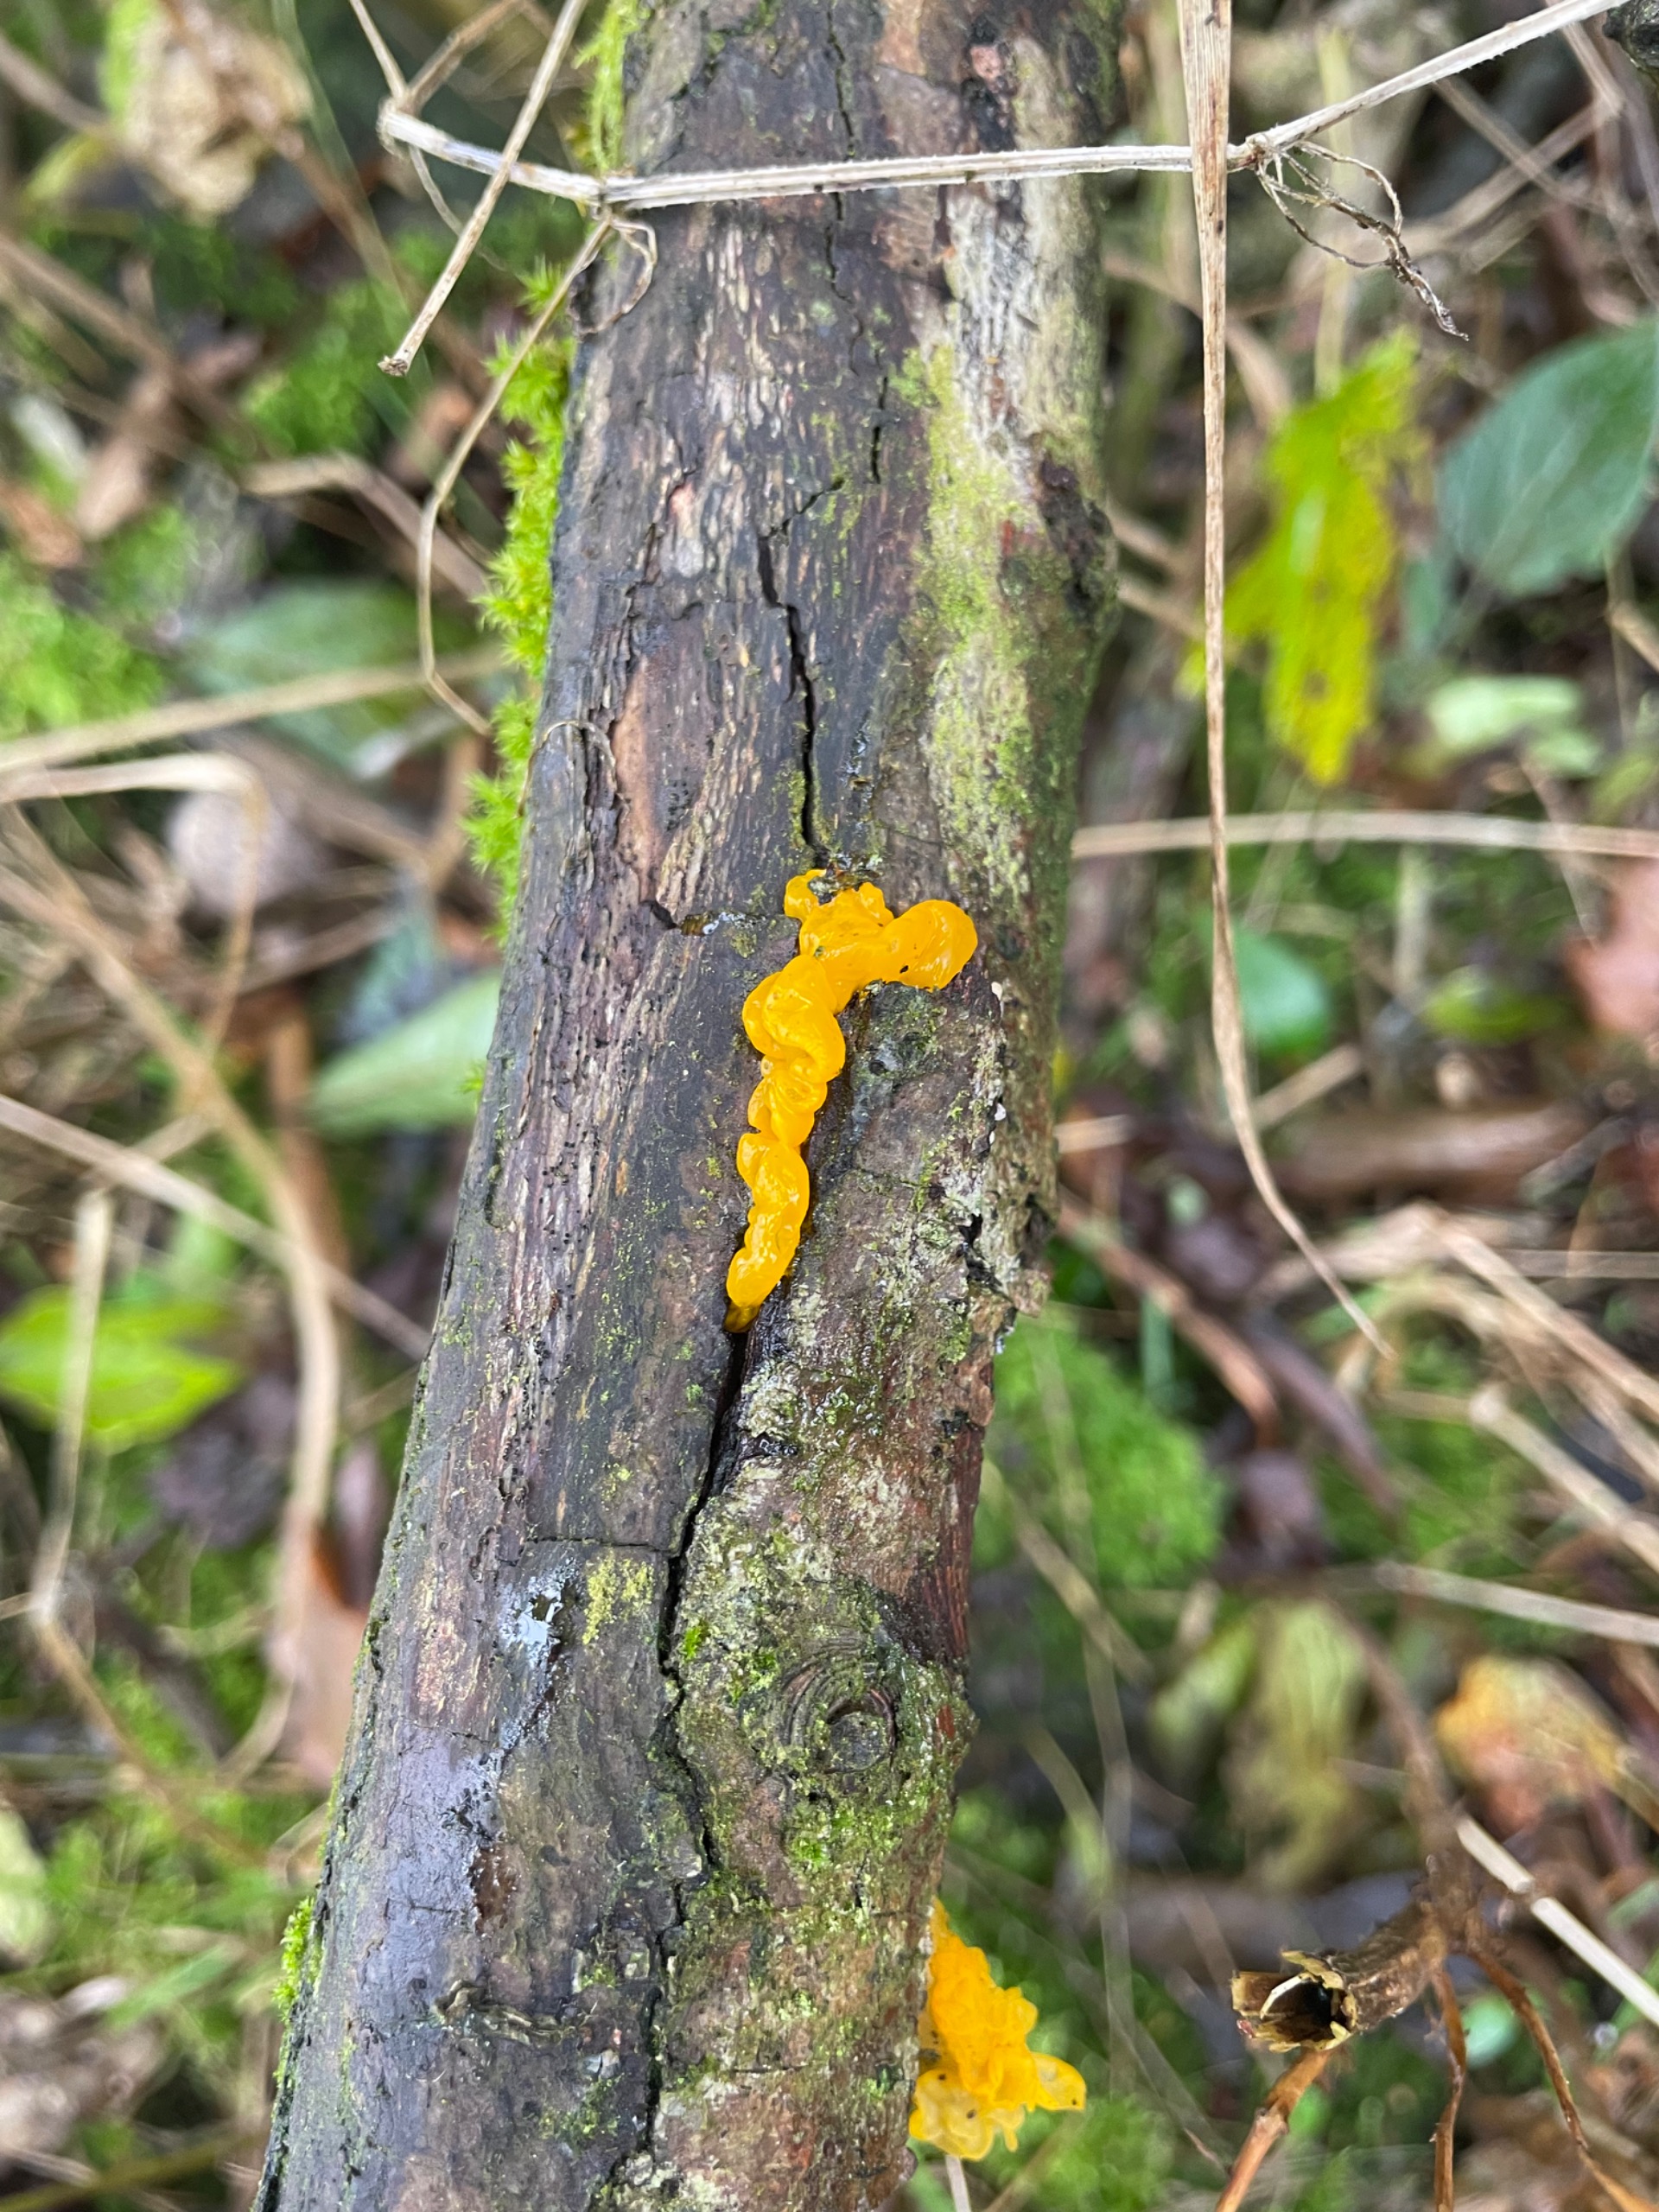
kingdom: Fungi
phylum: Basidiomycota
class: Tremellomycetes
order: Tremellales
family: Tremellaceae
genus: Tremella
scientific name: Tremella mesenterica
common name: Gul bævresvamp
